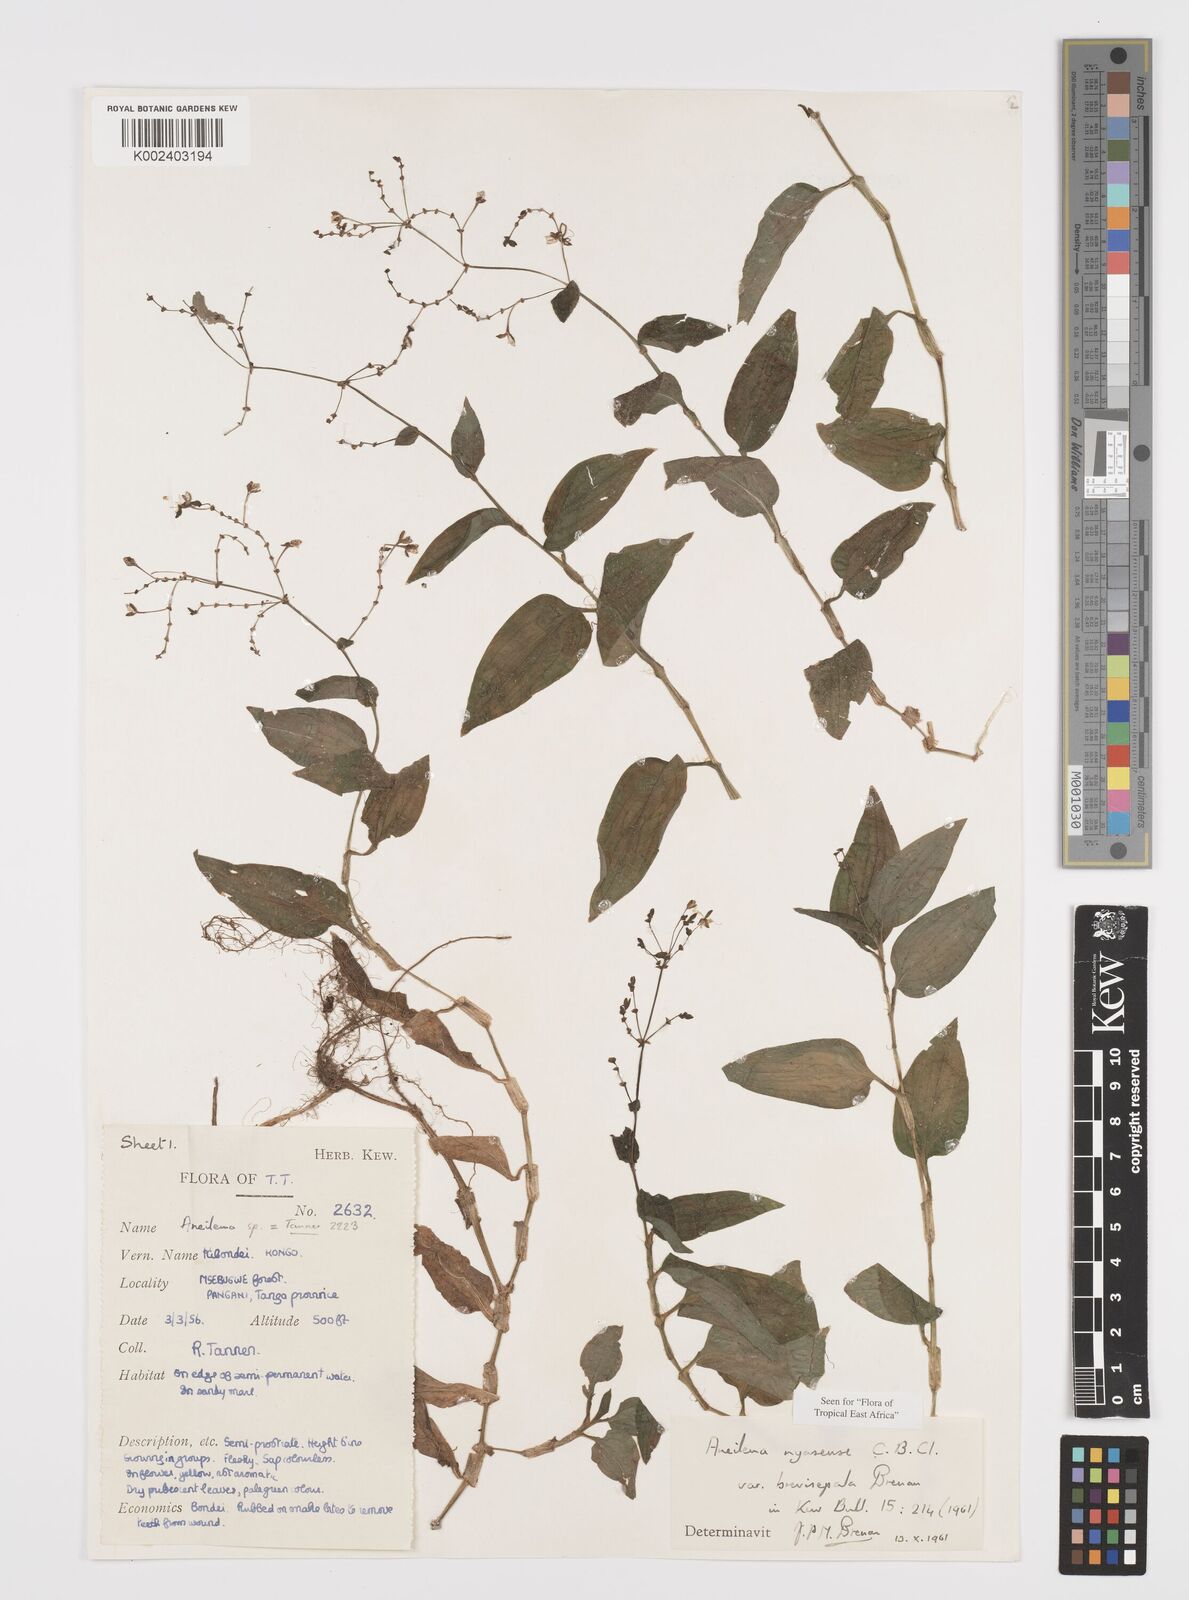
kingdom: Plantae
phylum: Tracheophyta
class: Liliopsida
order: Commelinales
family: Commelinaceae
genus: Aneilema
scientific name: Aneilema nyasense
